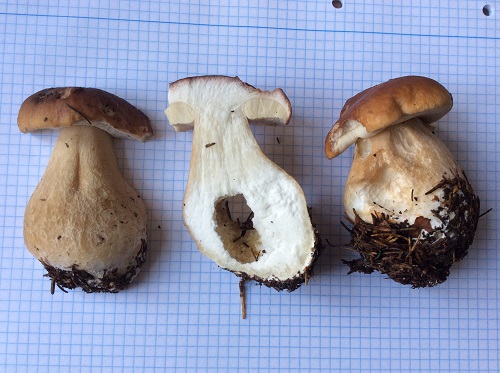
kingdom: Fungi
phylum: Basidiomycota
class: Agaricomycetes
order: Boletales
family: Boletaceae
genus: Boletus
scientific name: Boletus edulis
